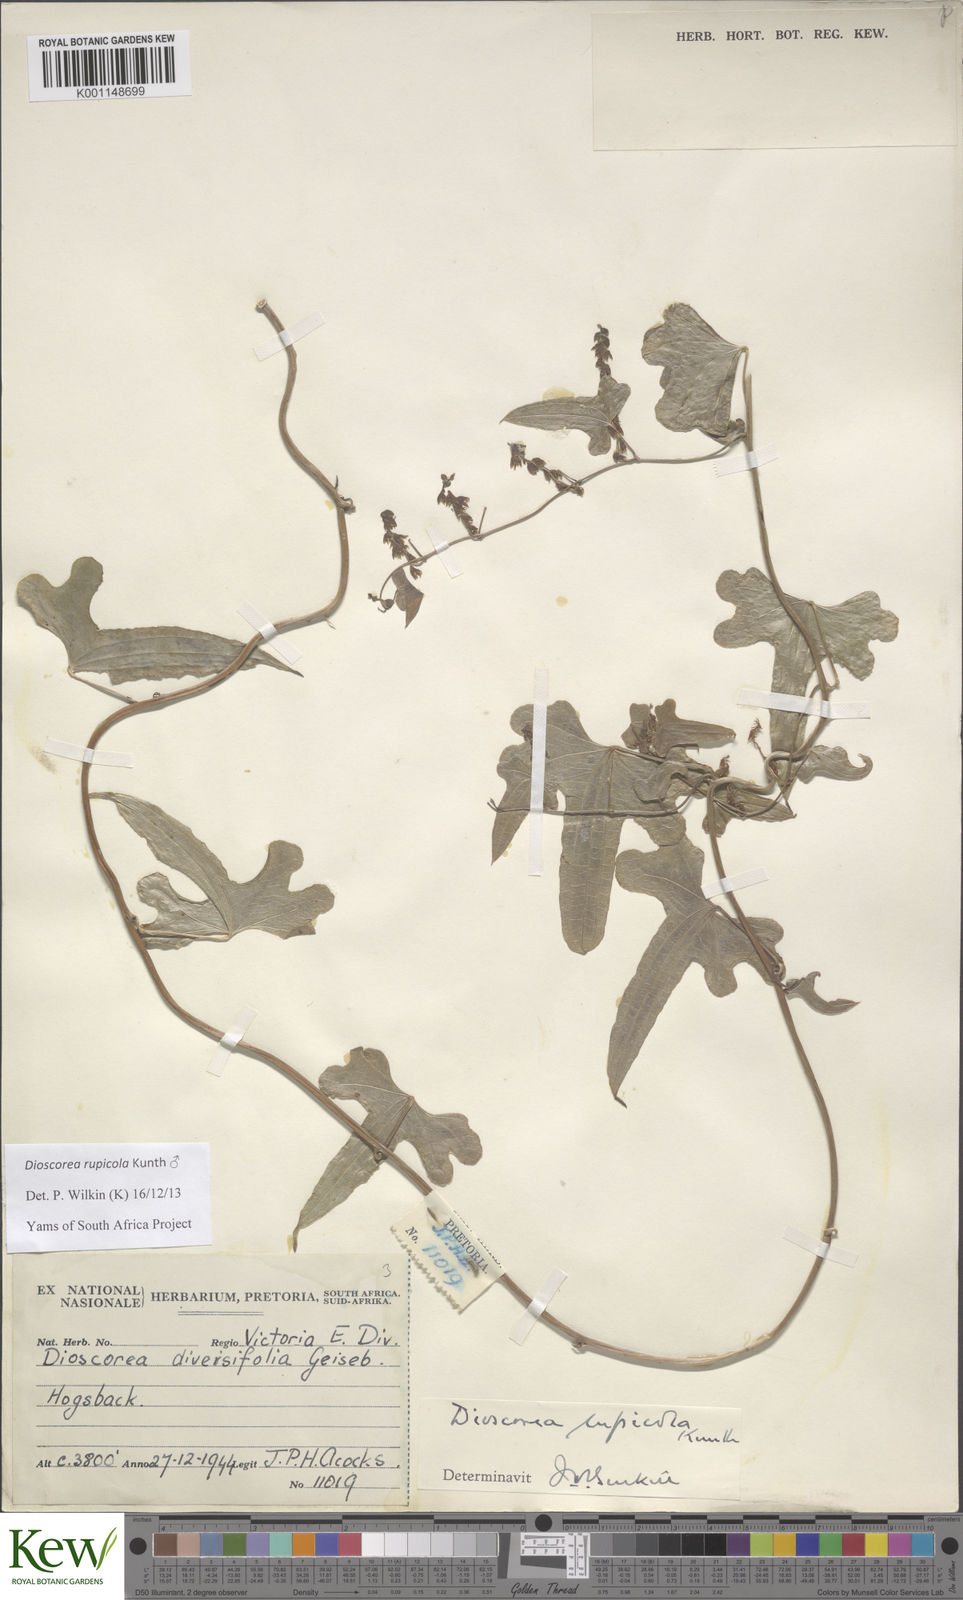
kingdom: Plantae
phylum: Tracheophyta
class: Liliopsida
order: Dioscoreales
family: Dioscoreaceae
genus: Dioscorea
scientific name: Dioscorea rupicola
